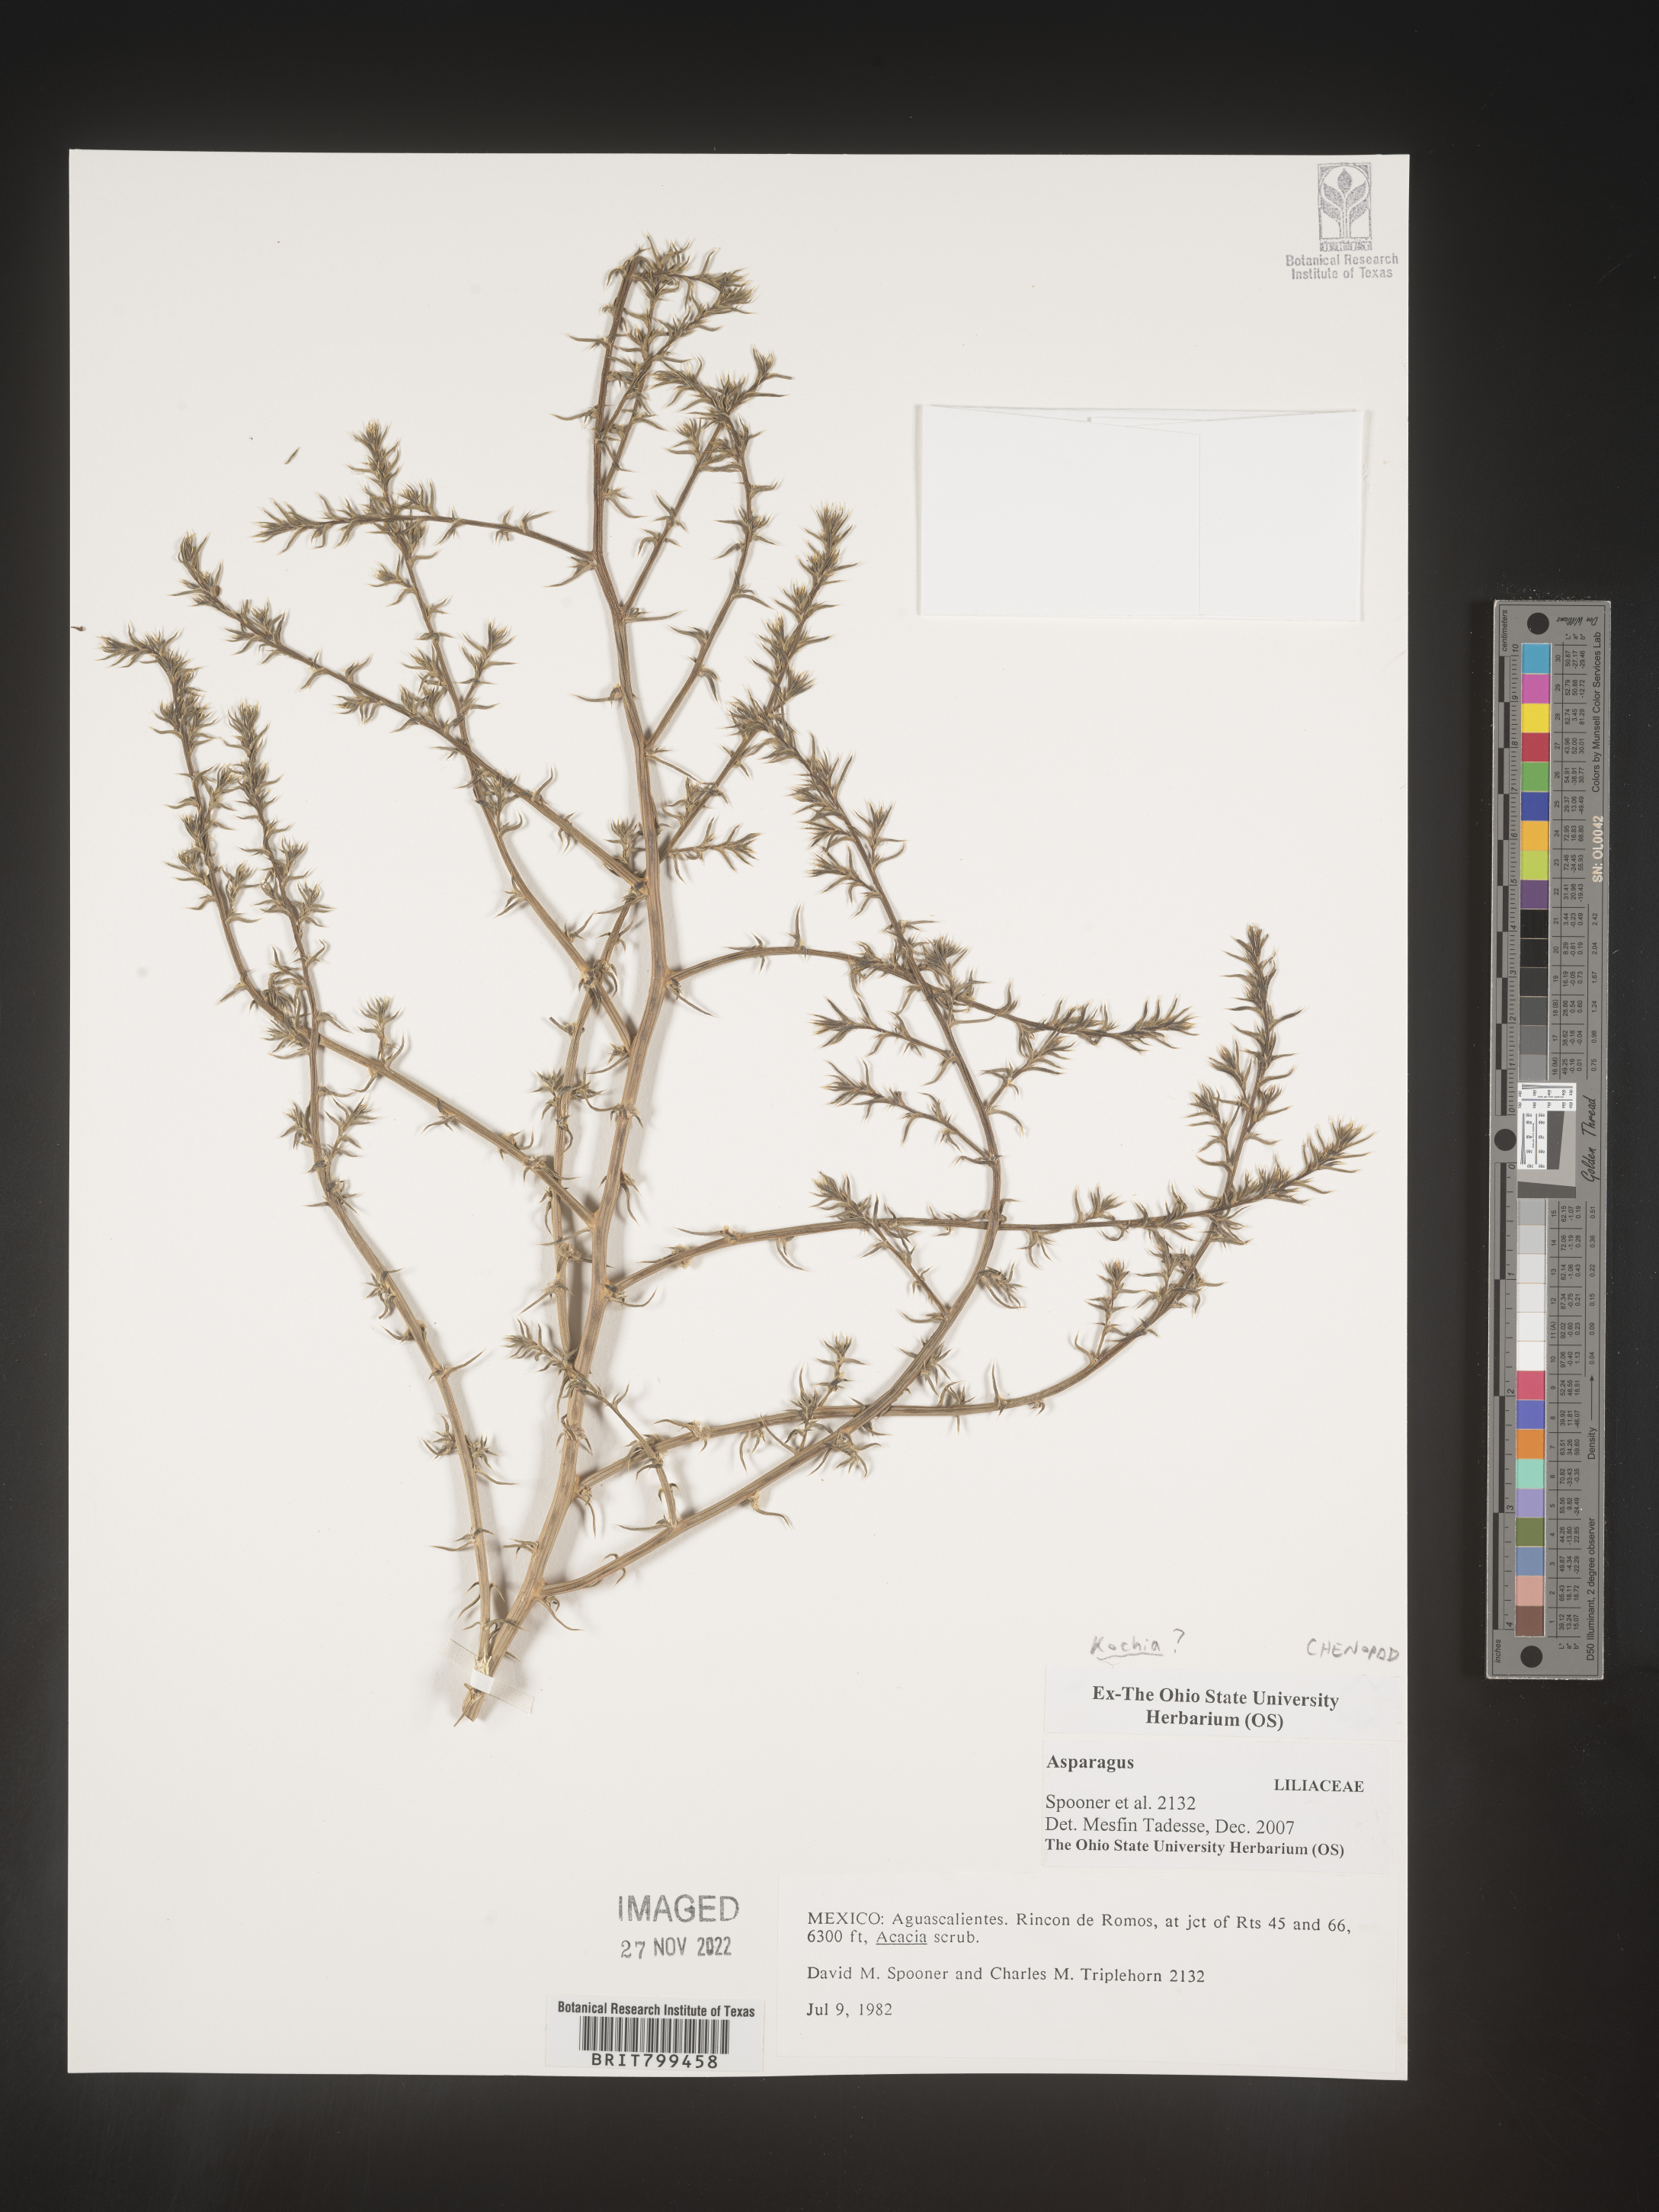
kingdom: Plantae
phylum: Tracheophyta
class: Magnoliopsida
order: Caryophyllales
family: Amaranthaceae
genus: Bassia
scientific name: Bassia
